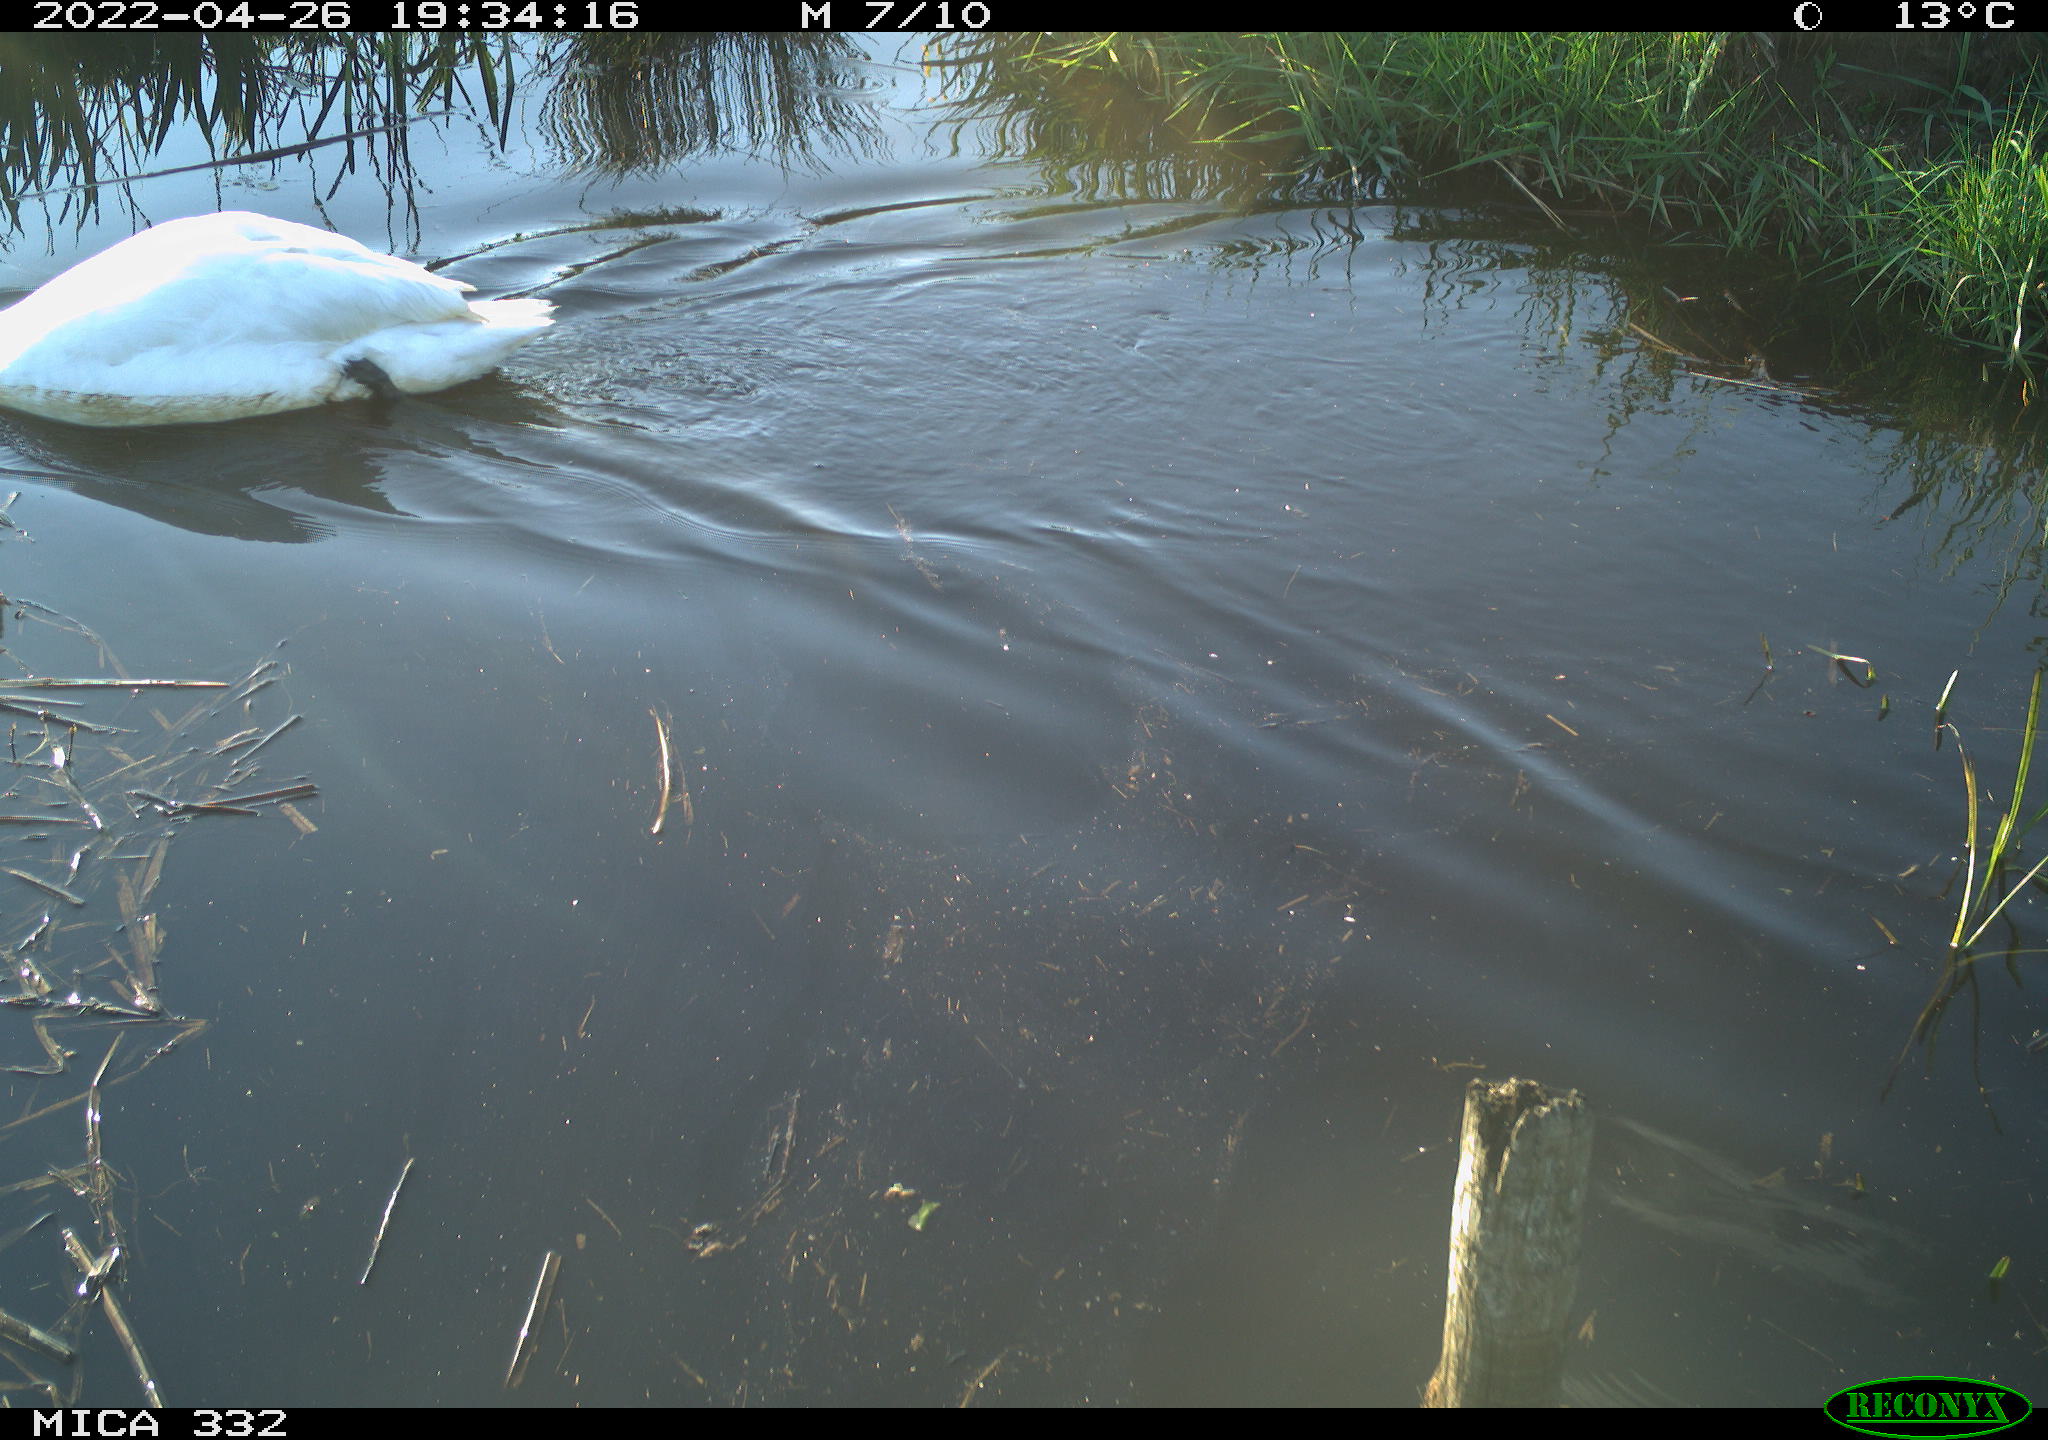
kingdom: Animalia
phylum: Chordata
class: Aves
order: Anseriformes
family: Anatidae
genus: Cygnus
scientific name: Cygnus olor
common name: Mute swan
